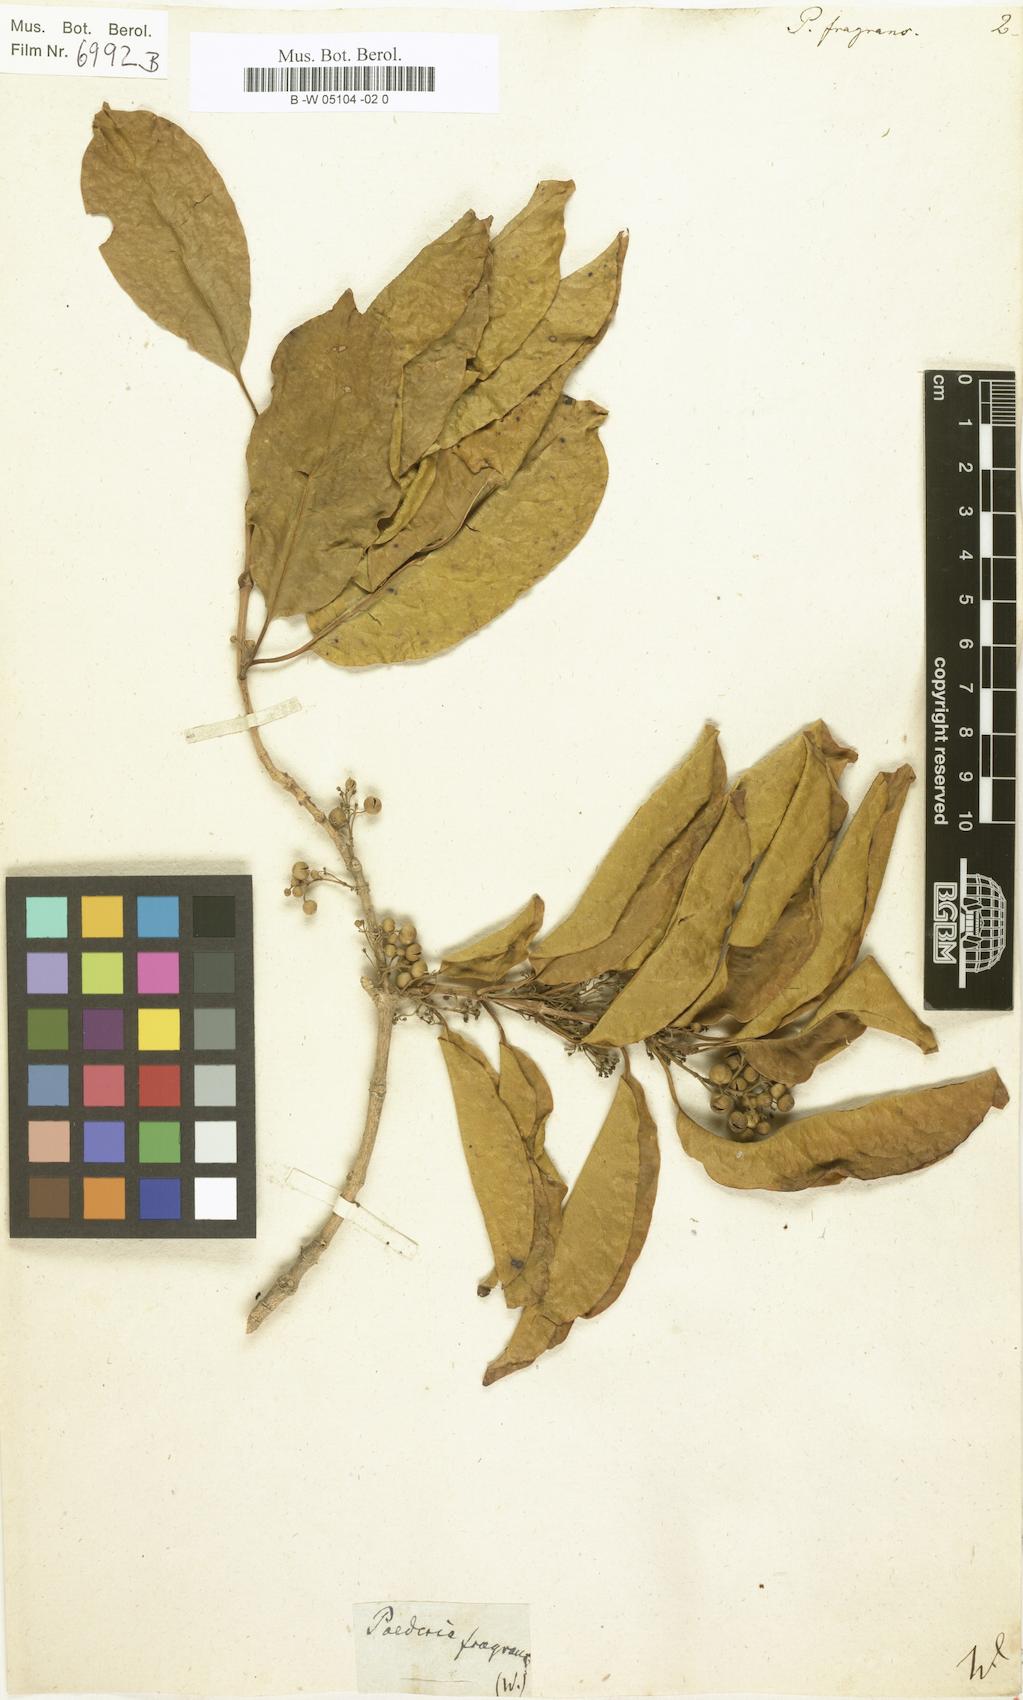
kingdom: Plantae
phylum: Tracheophyta
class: Magnoliopsida
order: Gentianales
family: Rubiaceae
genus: Danais
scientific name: Danais fragrans
